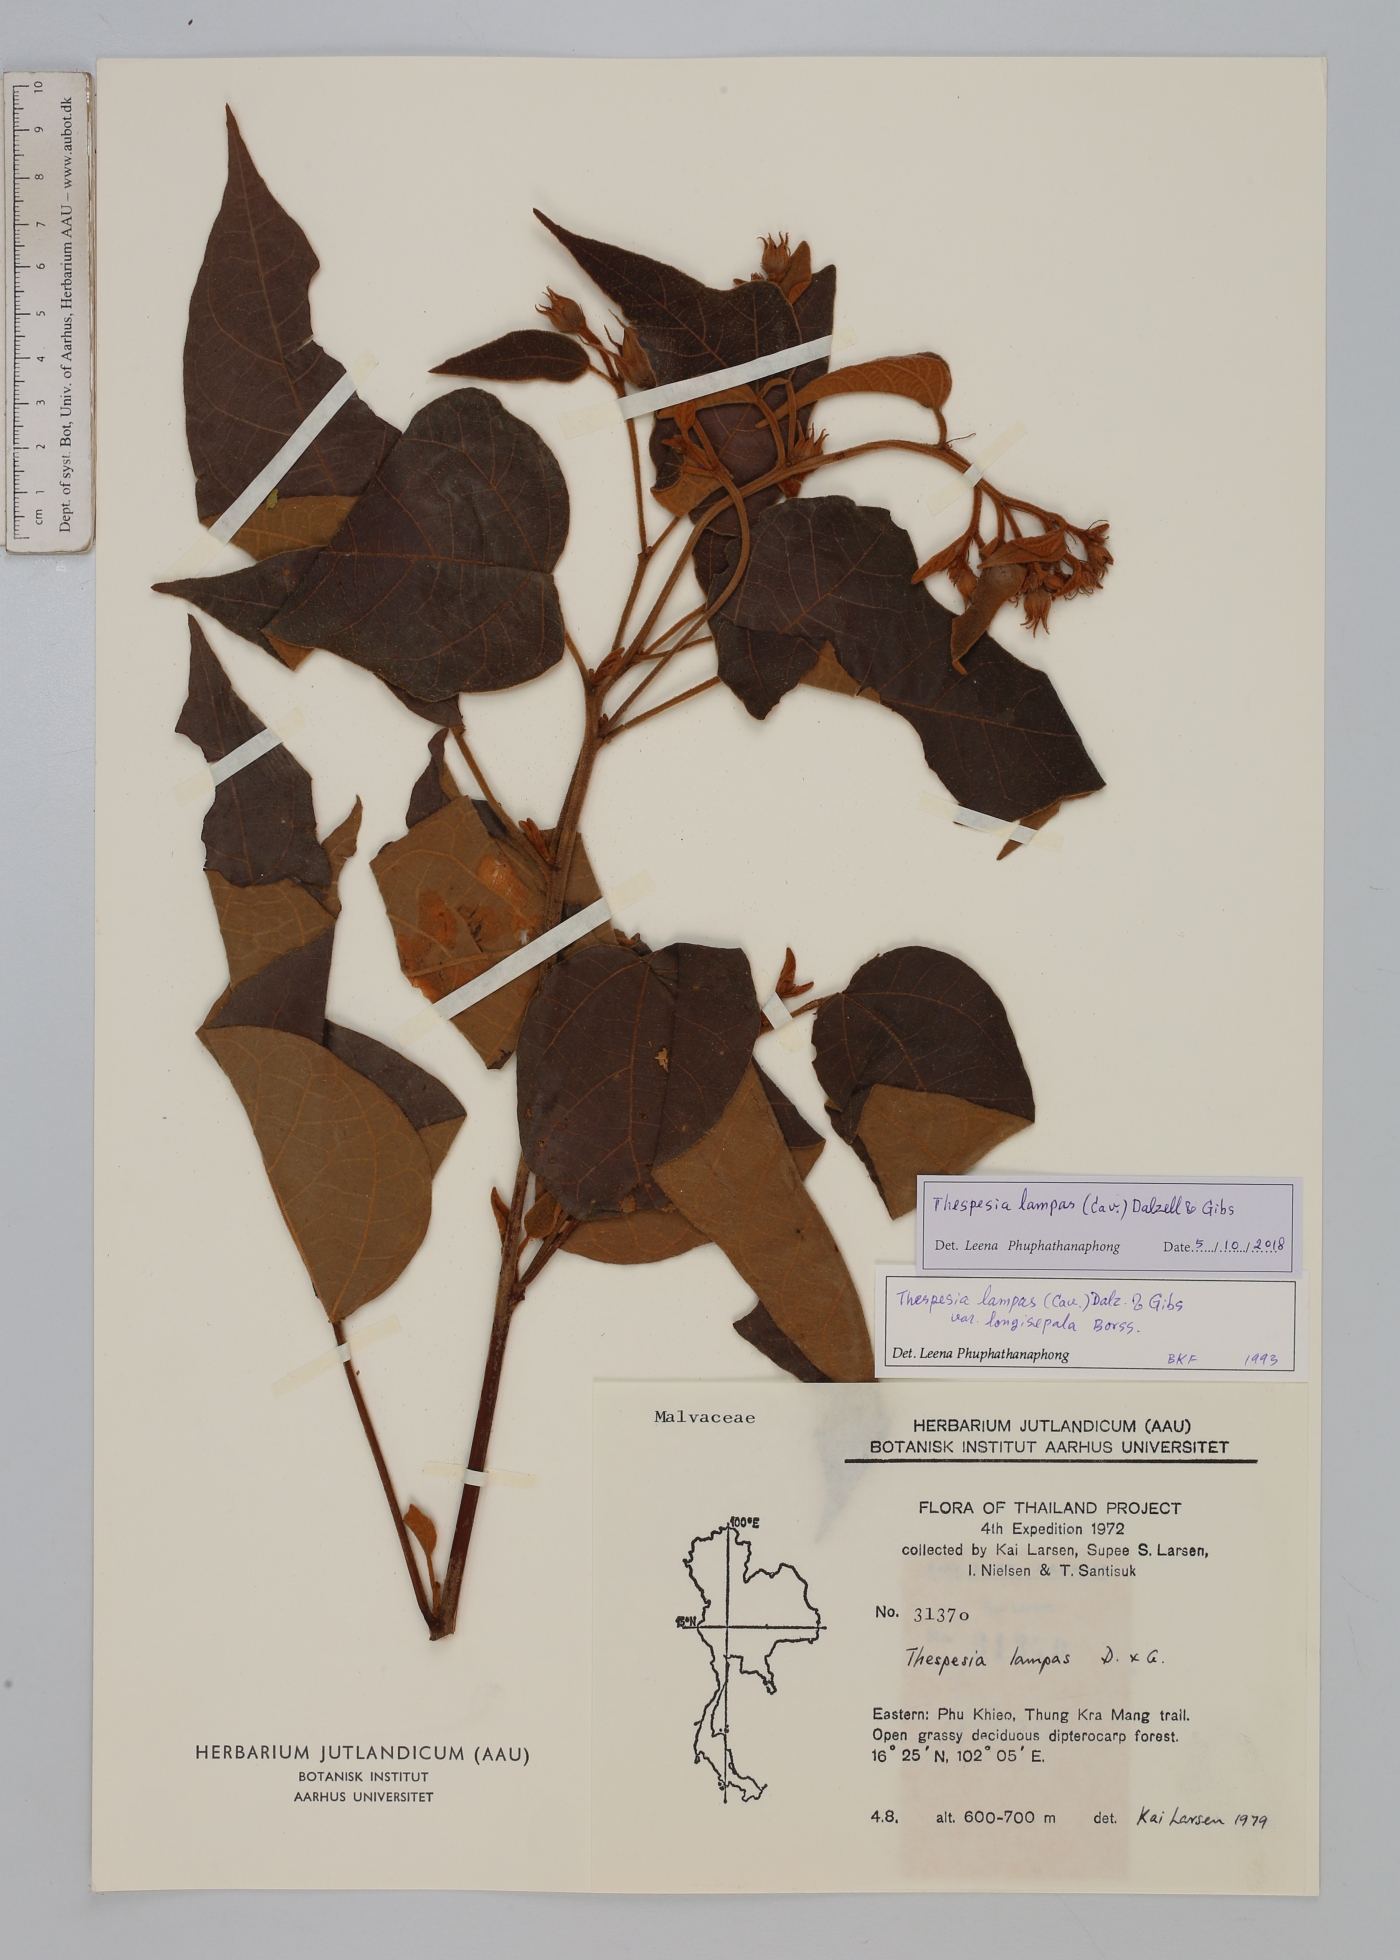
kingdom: Plantae
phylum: Tracheophyta
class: Magnoliopsida
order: Malvales
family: Malvaceae
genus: Thespesia
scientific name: Thespesia lampas
